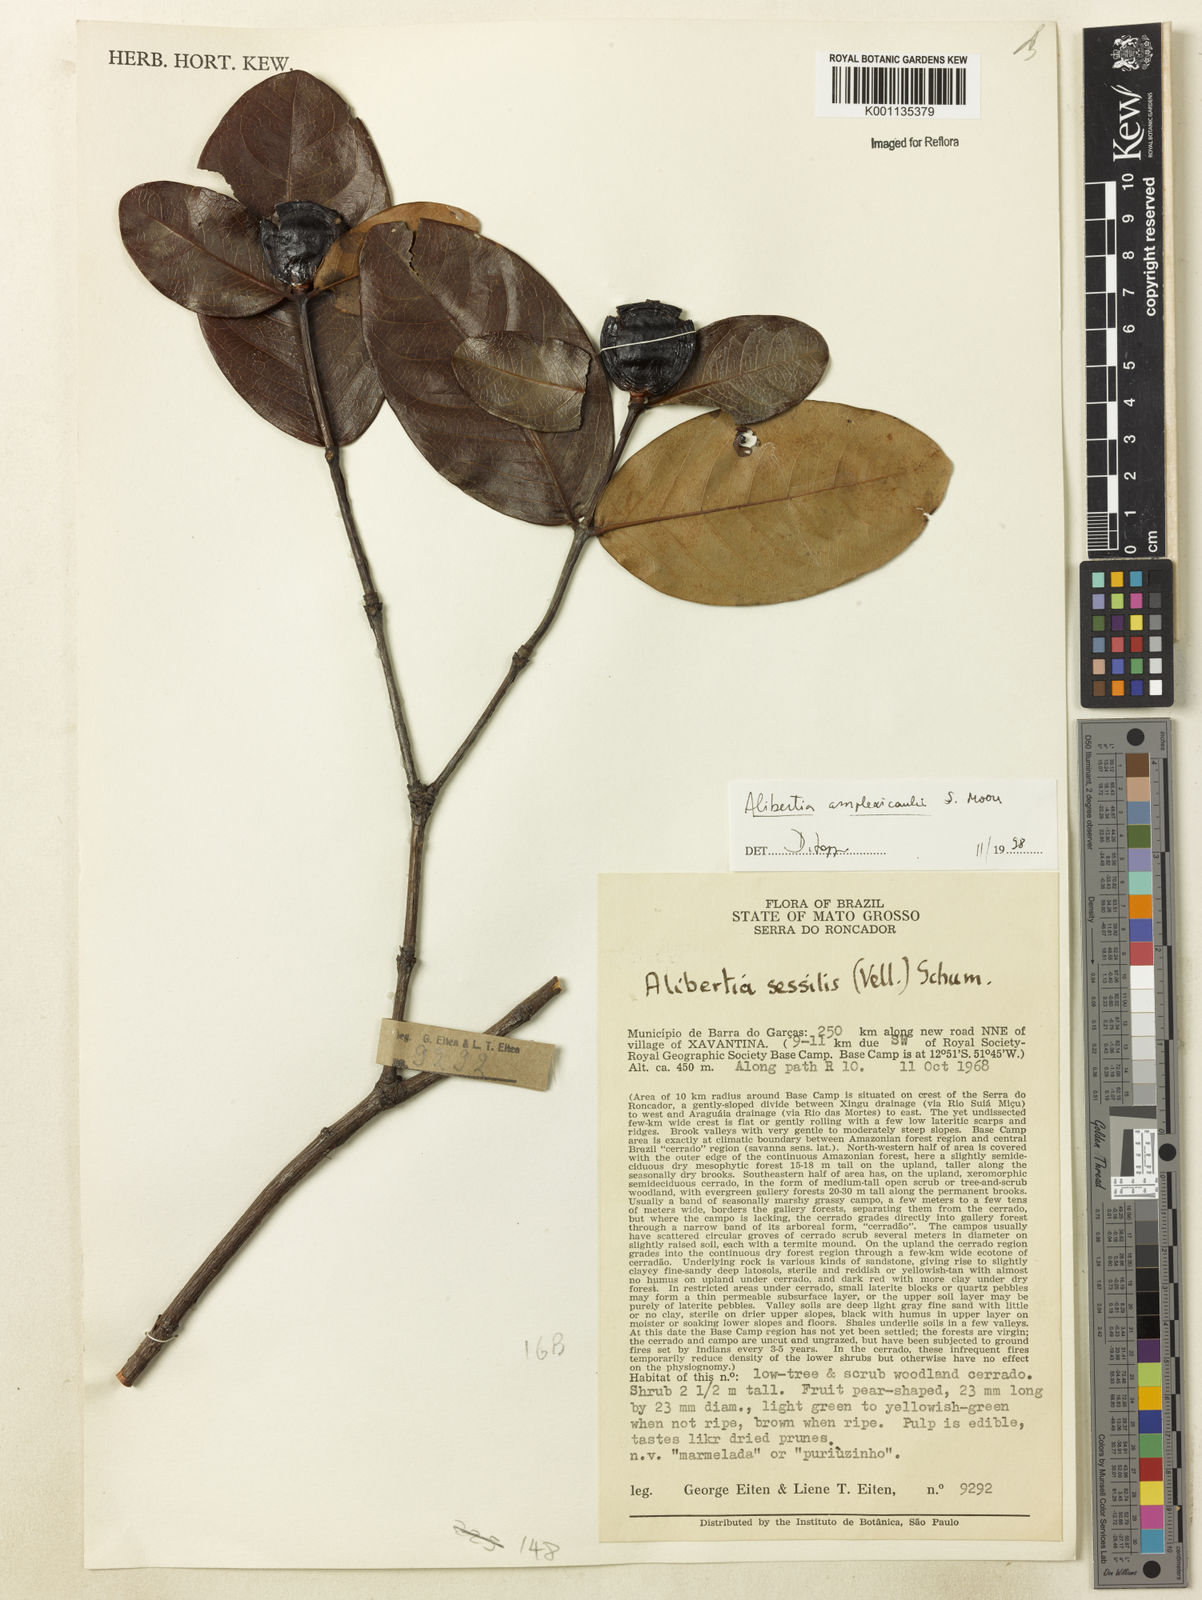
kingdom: Plantae
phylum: Tracheophyta
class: Magnoliopsida
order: Gentianales
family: Rubiaceae
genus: Cordiera
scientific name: Cordiera humilis
